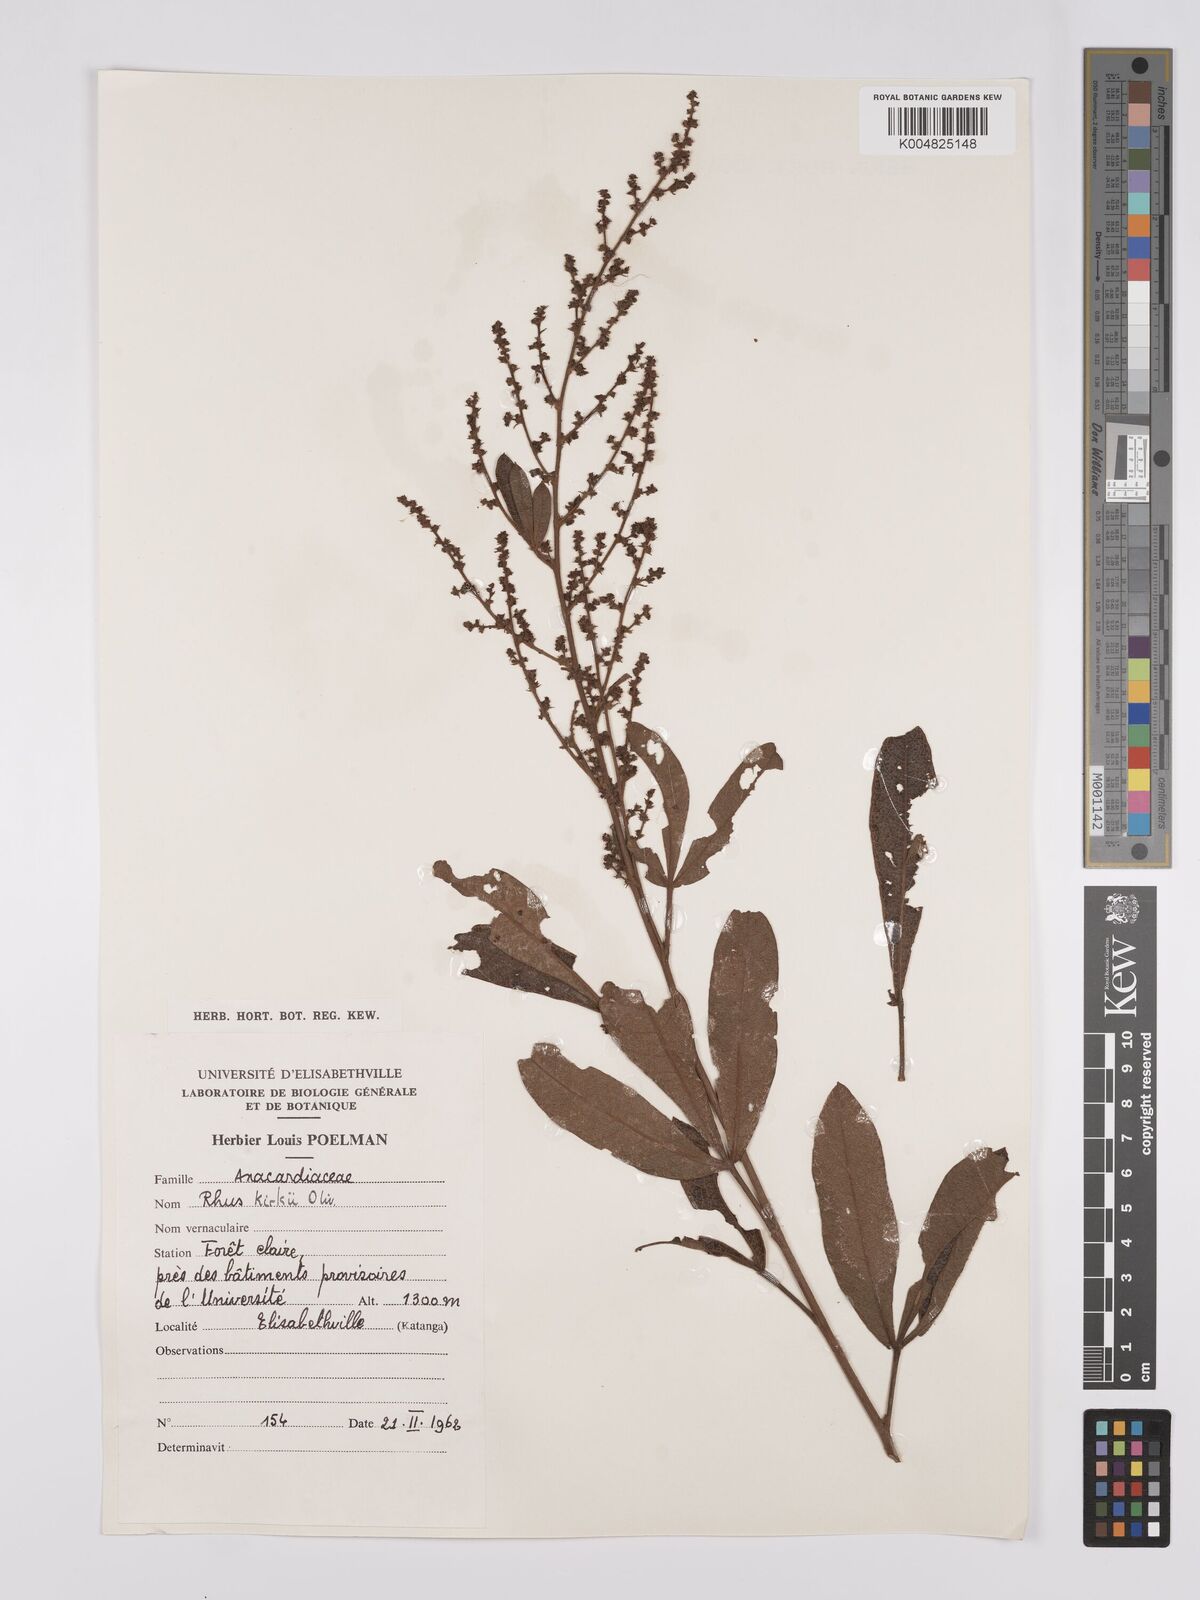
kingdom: Plantae
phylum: Tracheophyta
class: Magnoliopsida
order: Sapindales
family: Anacardiaceae
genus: Searsia
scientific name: Searsia kirkii
